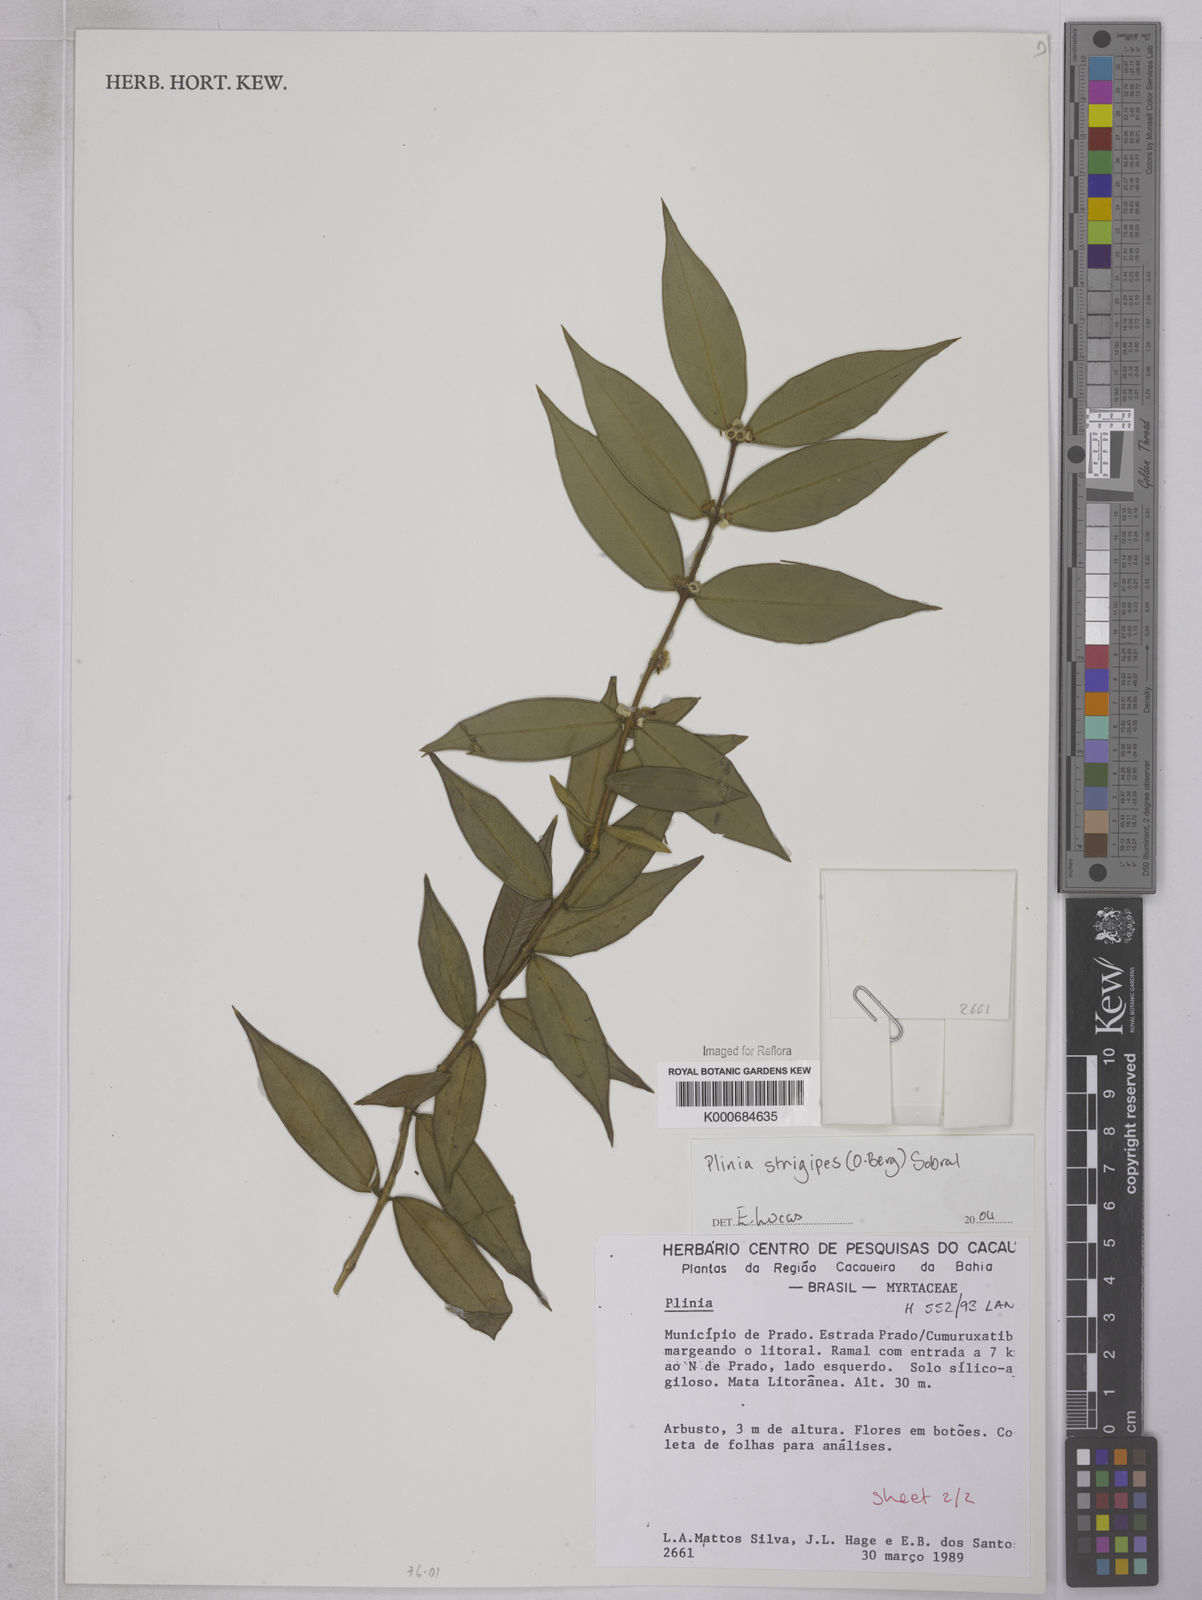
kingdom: Plantae
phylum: Tracheophyta
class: Magnoliopsida
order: Myrtales
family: Myrtaceae
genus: Plinia
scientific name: Plinia
